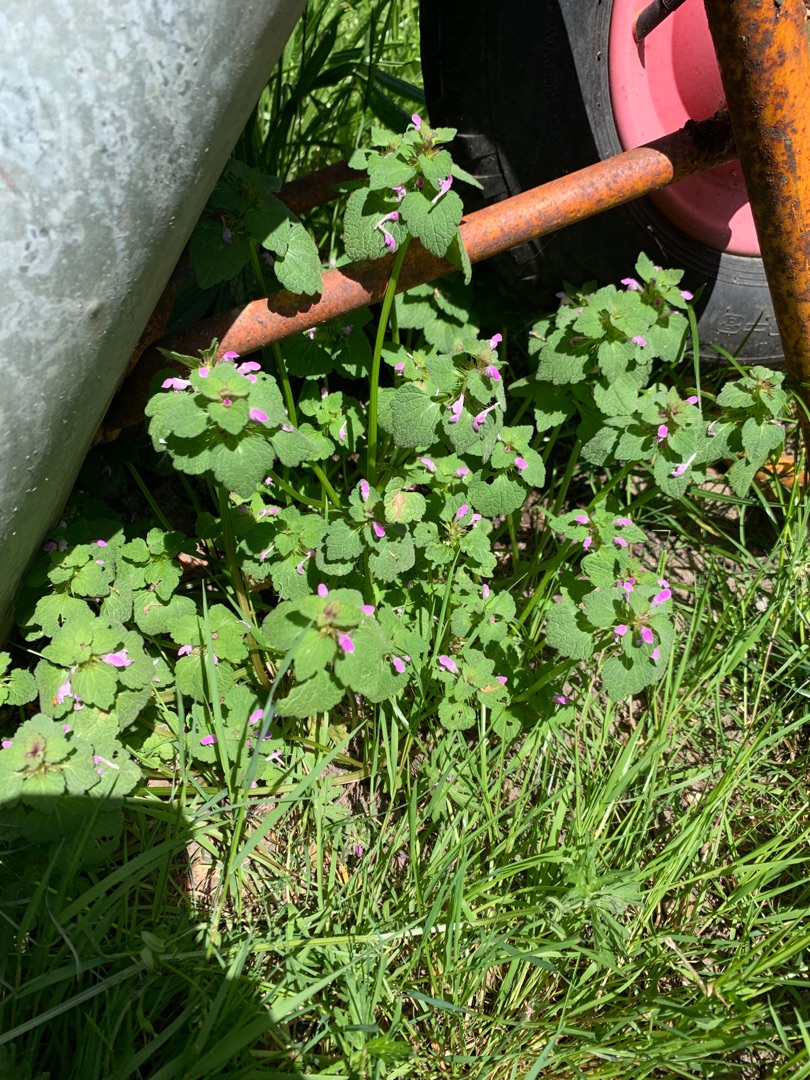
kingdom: Plantae
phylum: Tracheophyta
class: Magnoliopsida
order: Lamiales
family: Lamiaceae
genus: Lamium
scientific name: Lamium purpureum
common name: Rød tvetand
